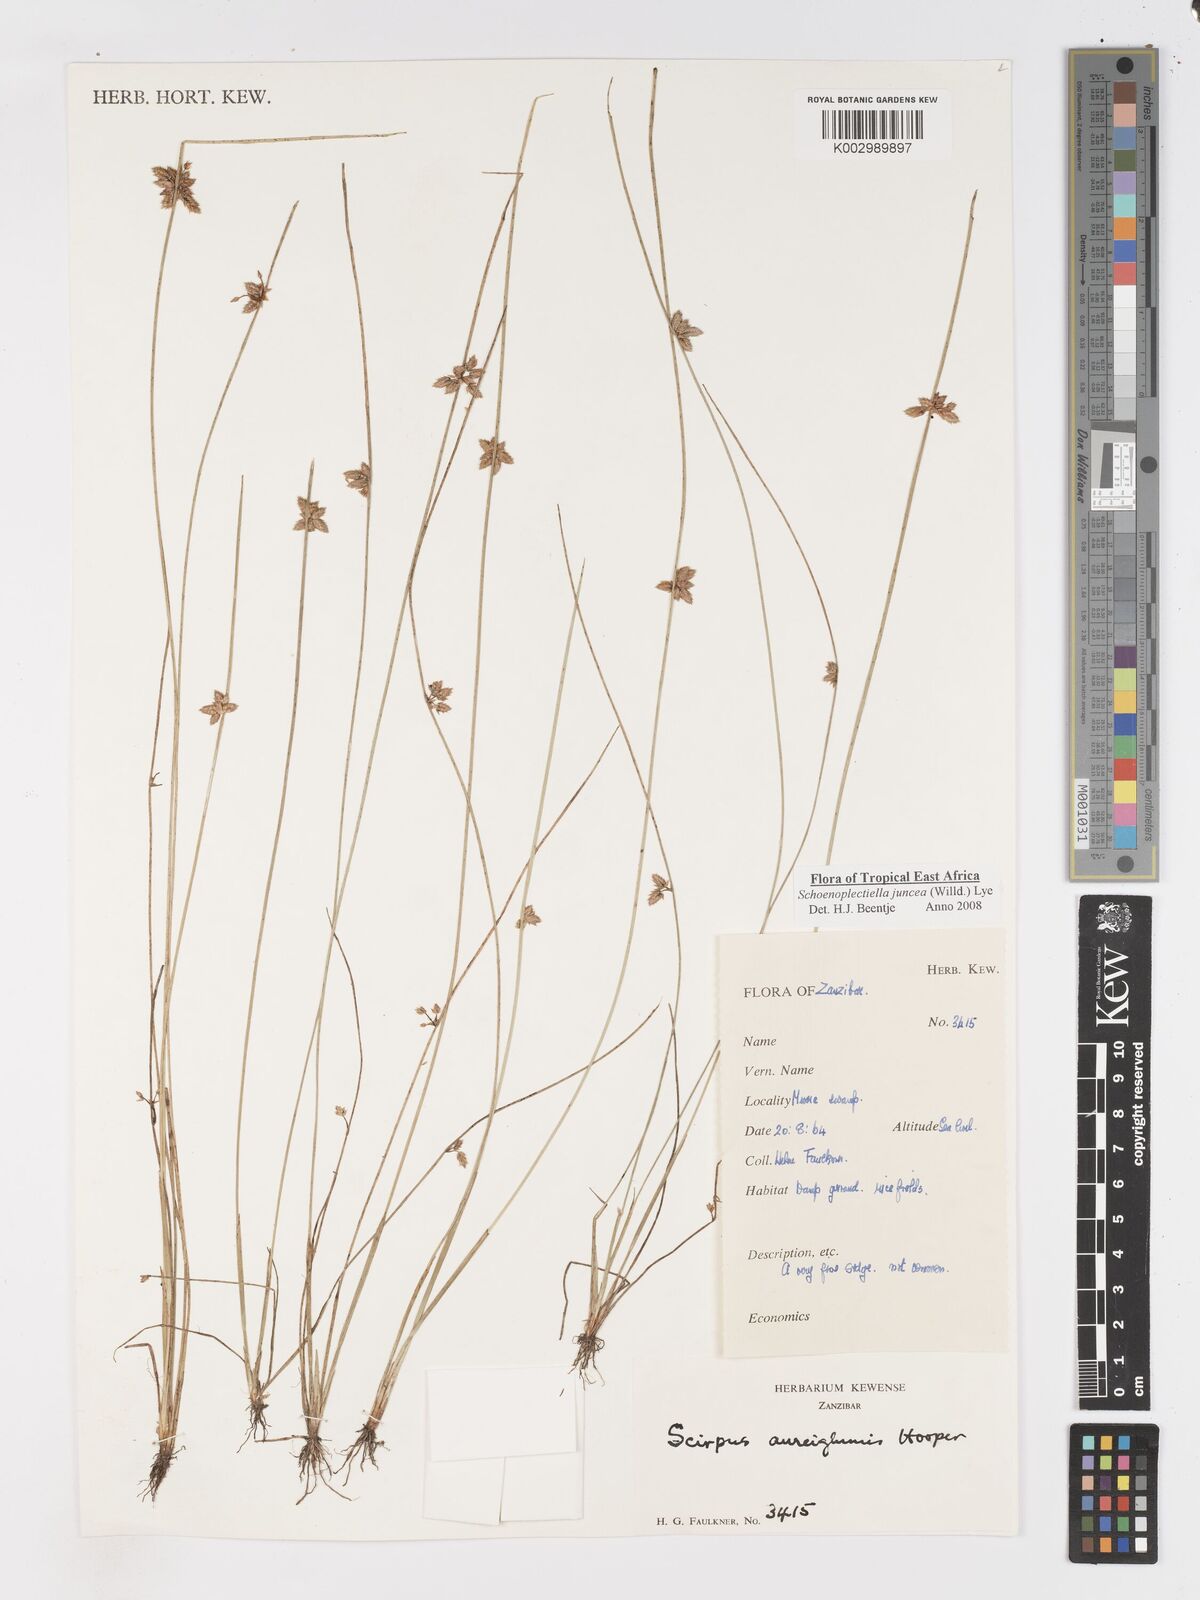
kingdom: Plantae
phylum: Tracheophyta
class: Liliopsida
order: Poales
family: Cyperaceae
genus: Schoenoplectiella
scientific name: Schoenoplectiella juncea
